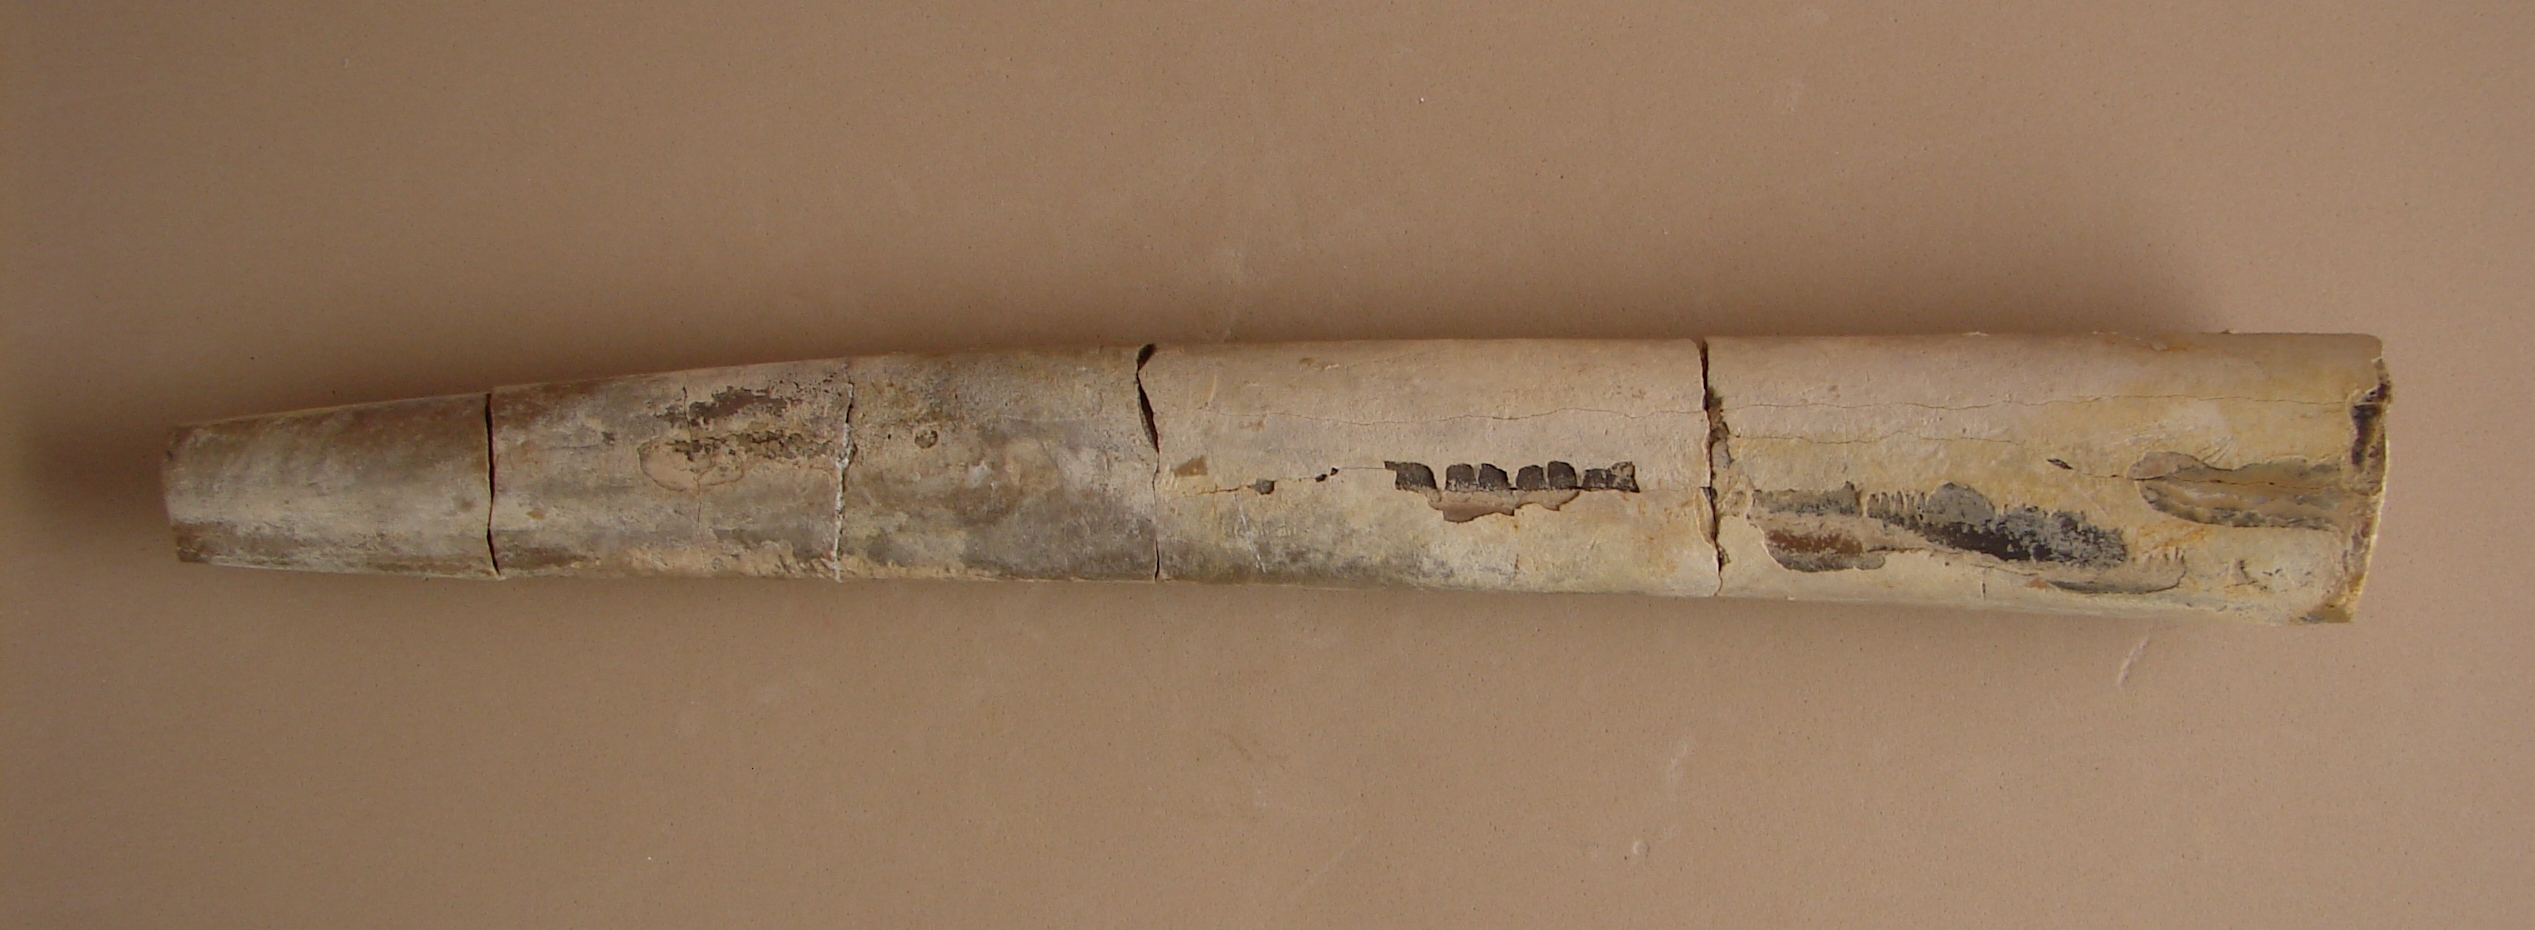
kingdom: Animalia
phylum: Mollusca
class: Cephalopoda
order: Belemnitida
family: Megateuthididae
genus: Megateuthis
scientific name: Megateuthis
